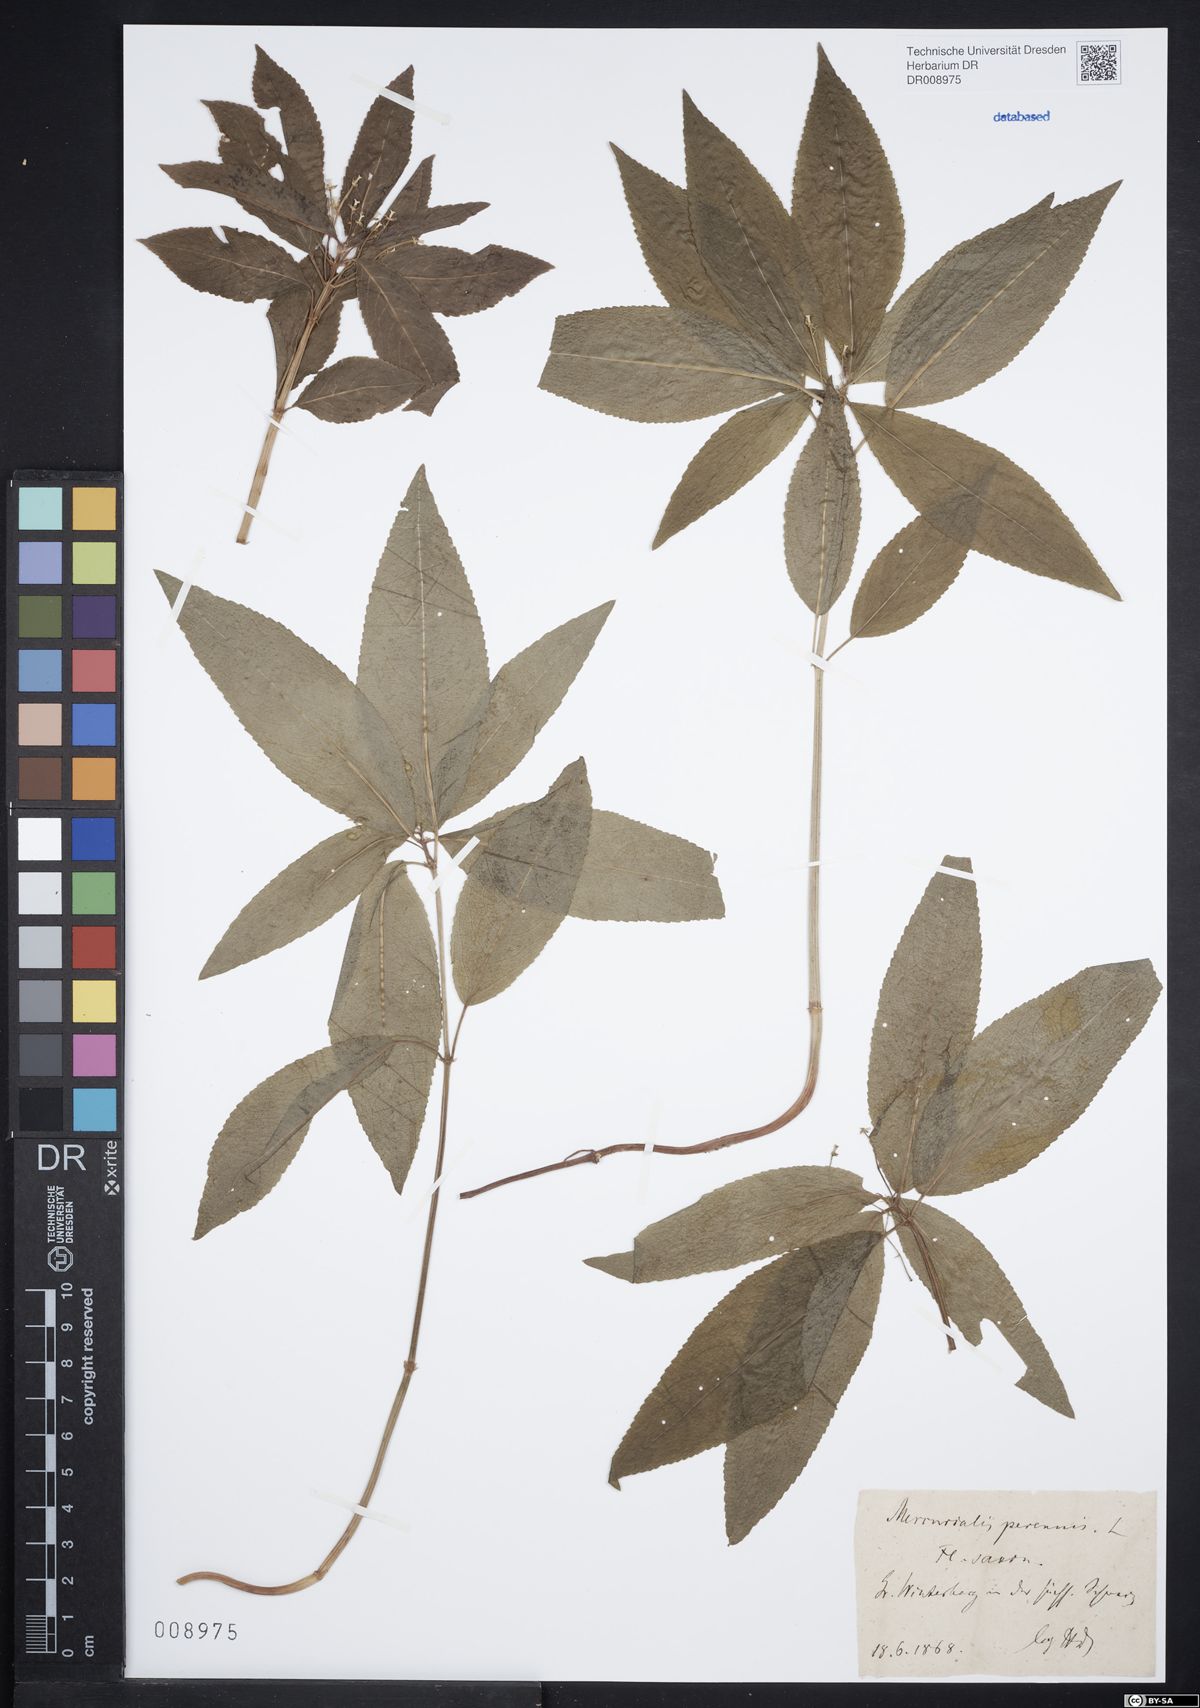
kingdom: Plantae
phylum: Tracheophyta
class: Magnoliopsida
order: Malpighiales
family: Euphorbiaceae
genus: Mercurialis
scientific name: Mercurialis perennis
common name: Dog mercury
